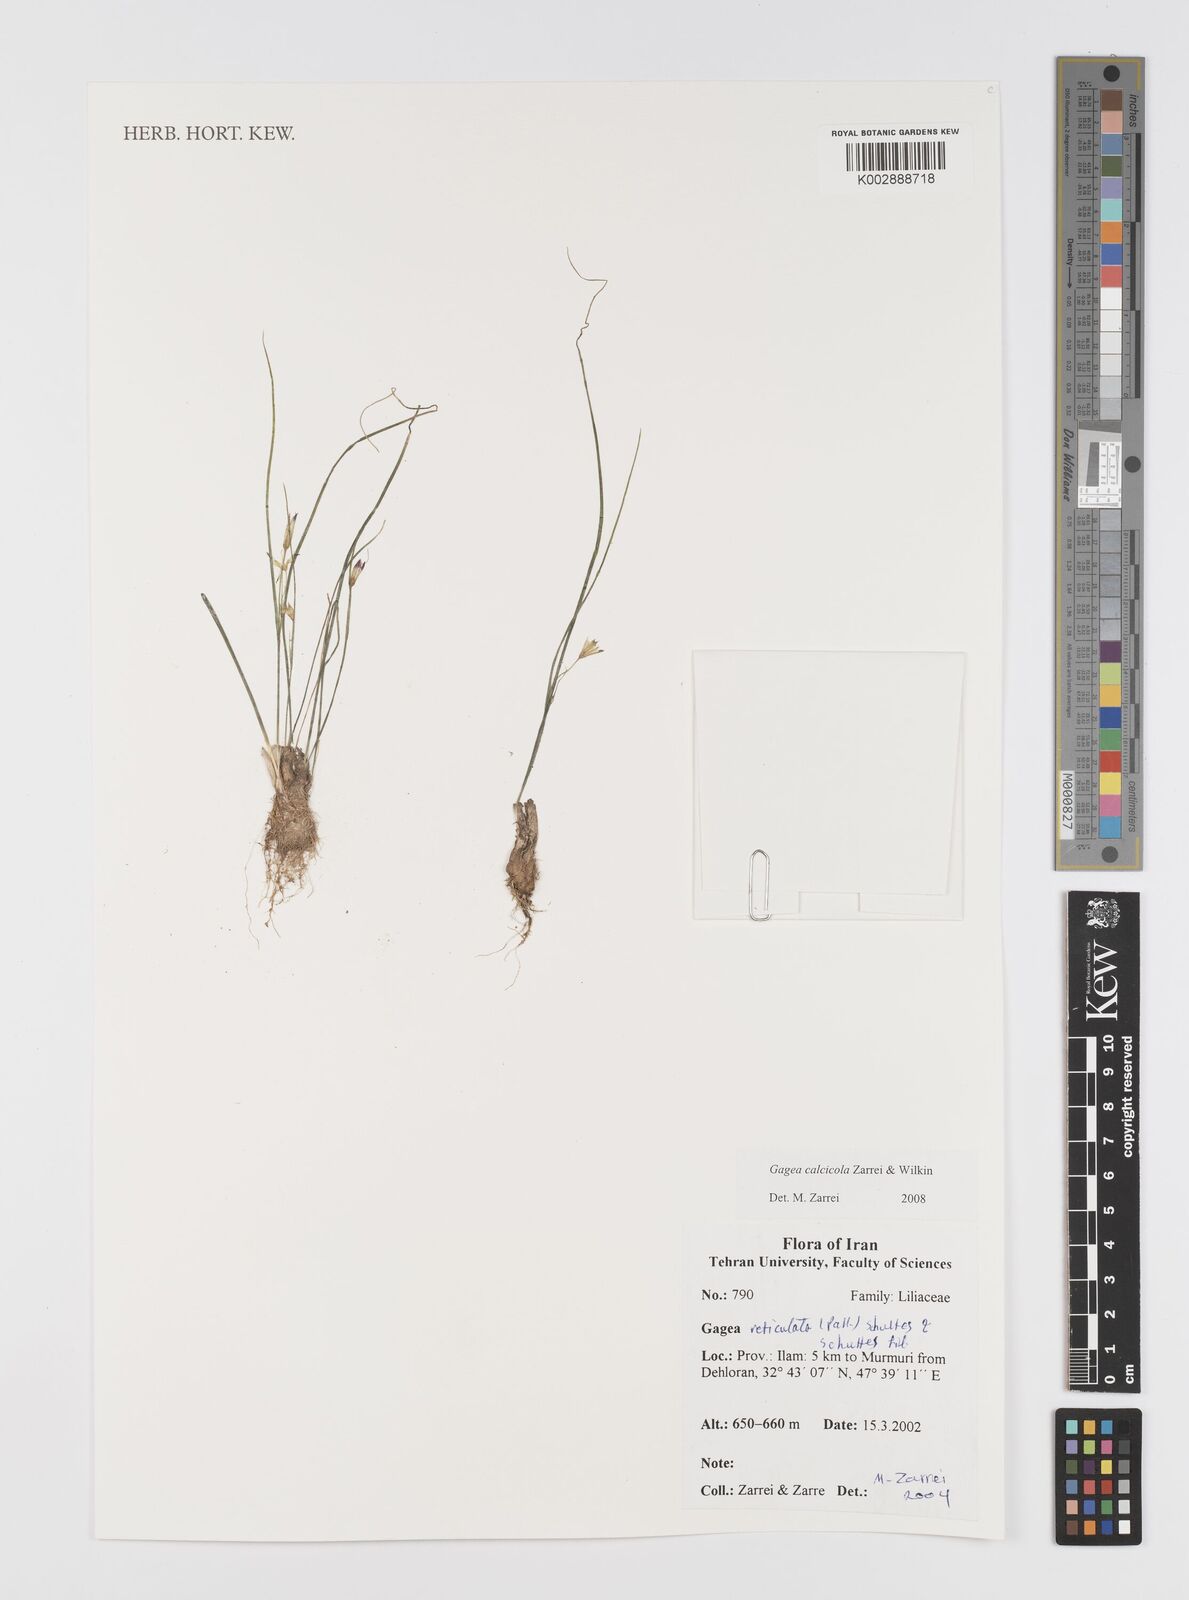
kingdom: Plantae
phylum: Tracheophyta
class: Liliopsida
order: Liliales
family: Liliaceae
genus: Gagea
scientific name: Gagea calcicola
